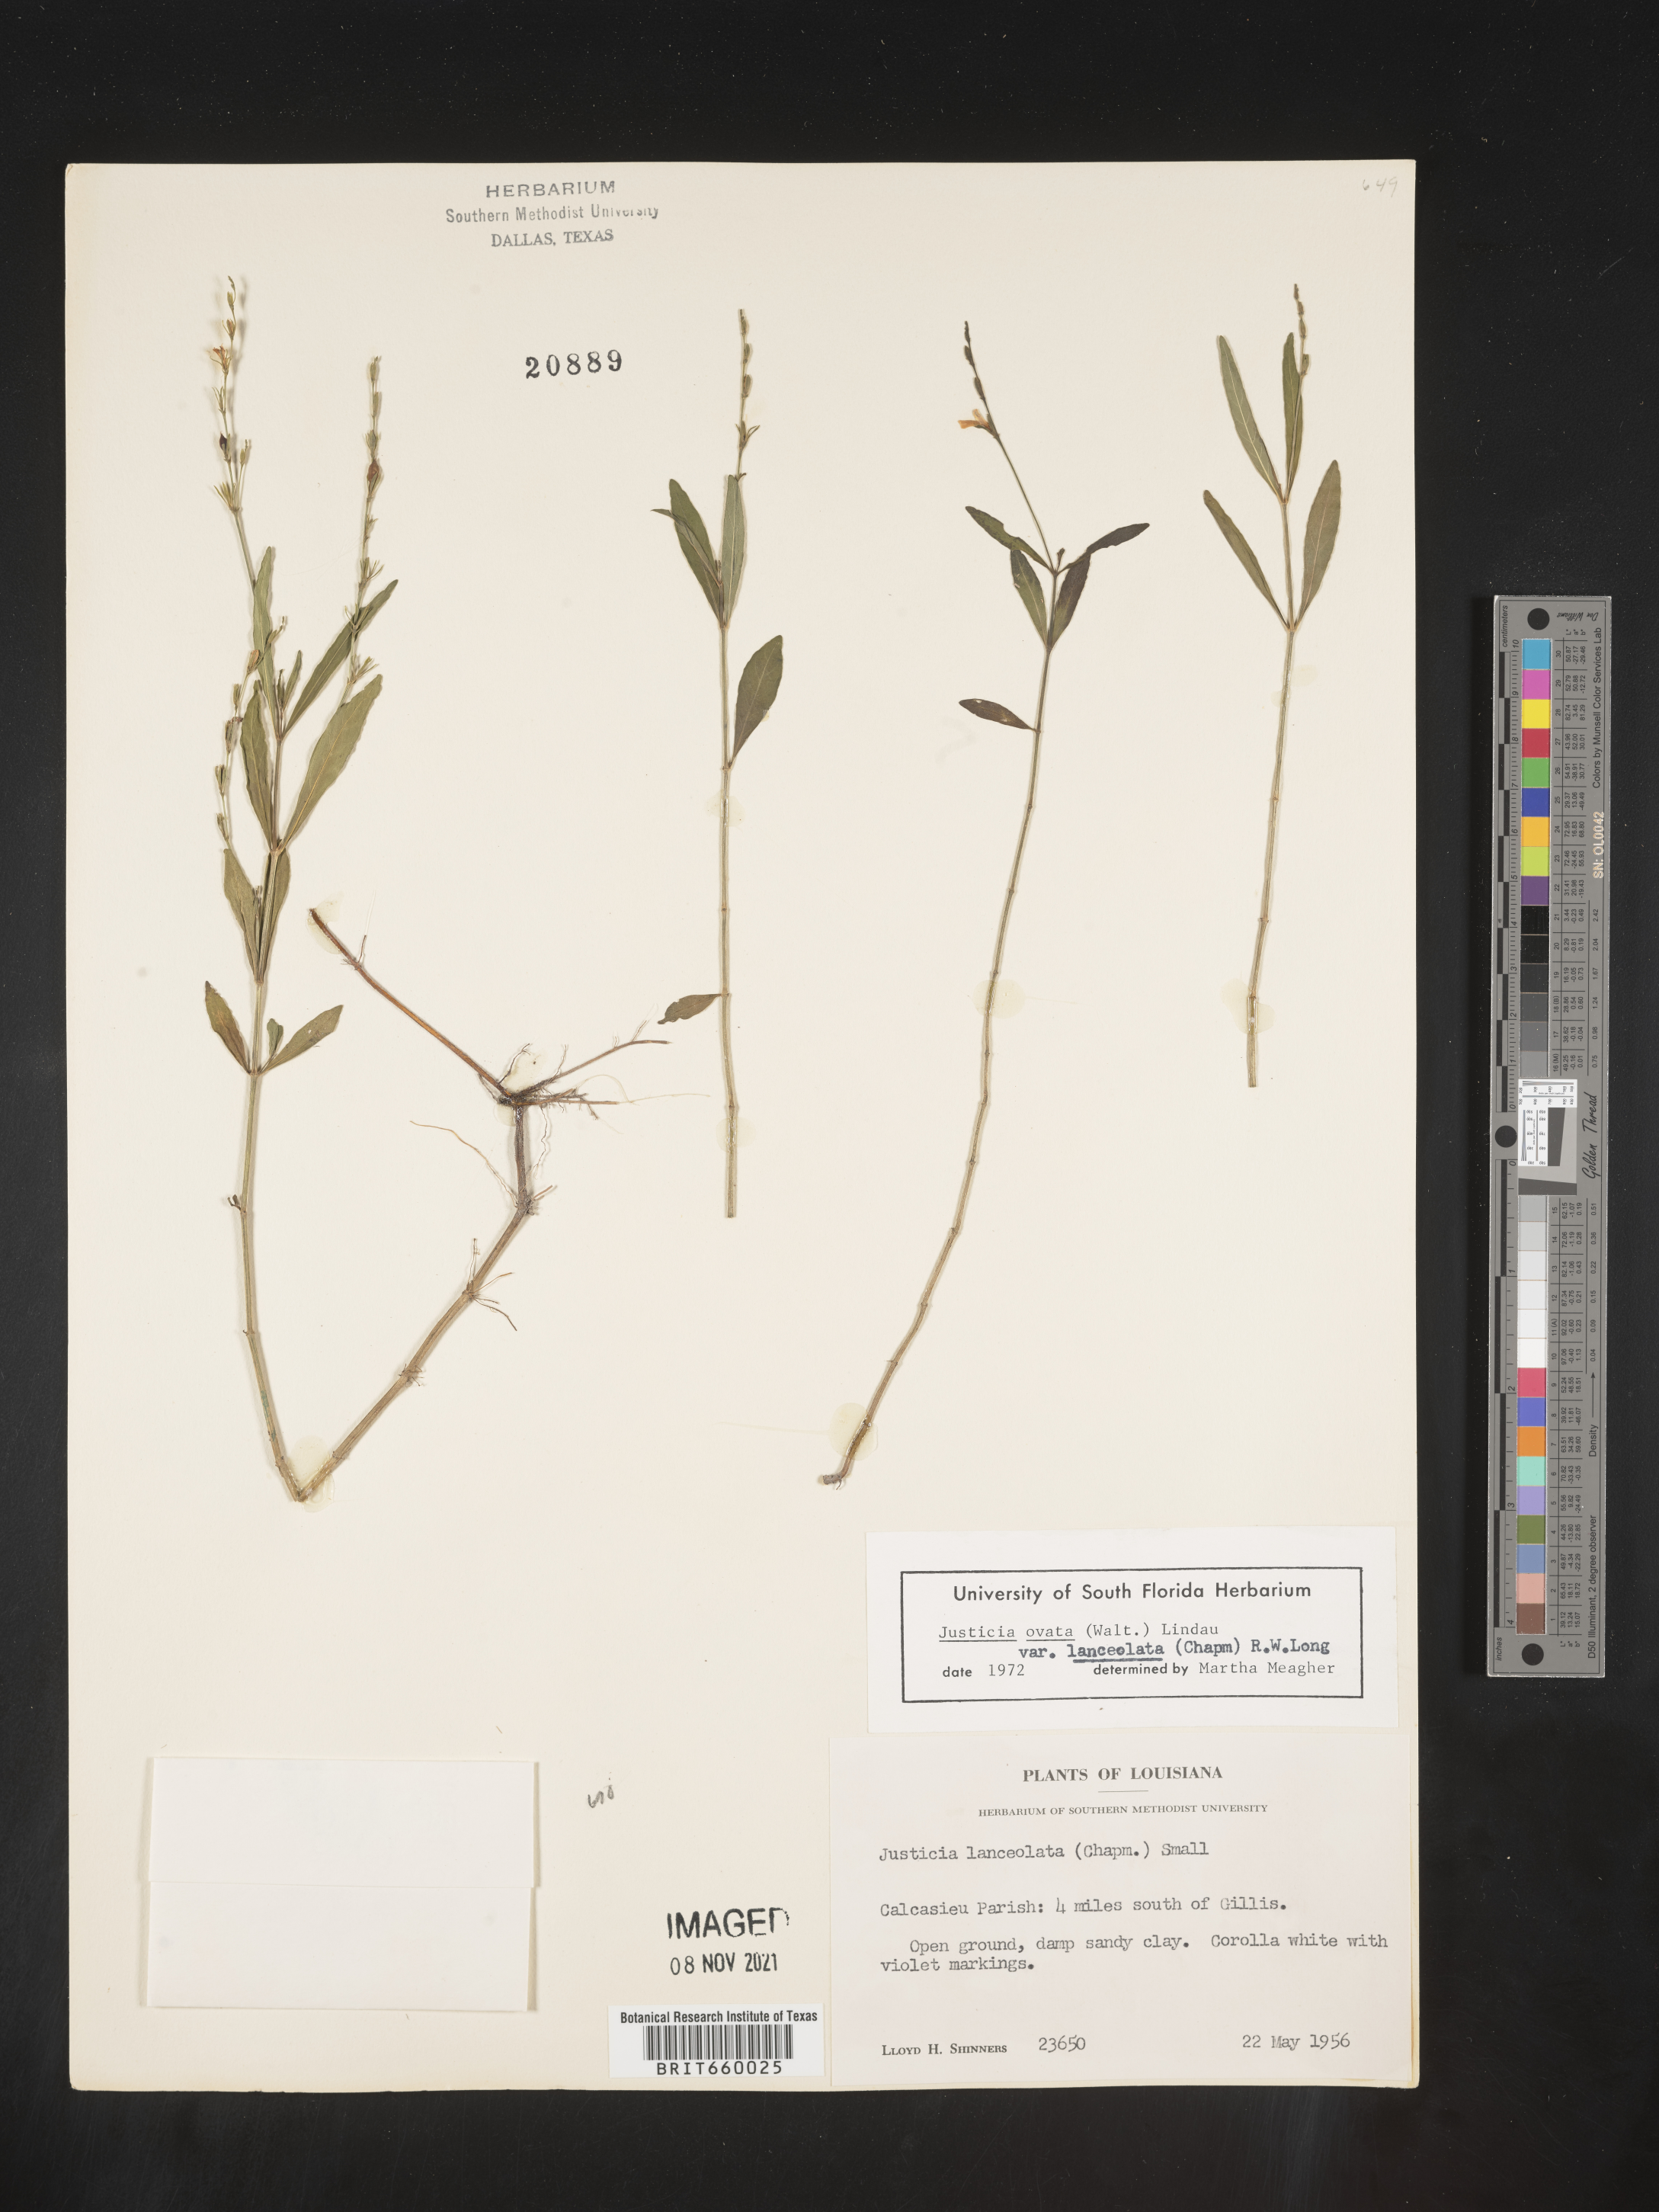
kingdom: Plantae
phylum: Tracheophyta
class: Magnoliopsida
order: Lamiales
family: Acanthaceae
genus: Justicia
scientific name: Justicia lanceolata
